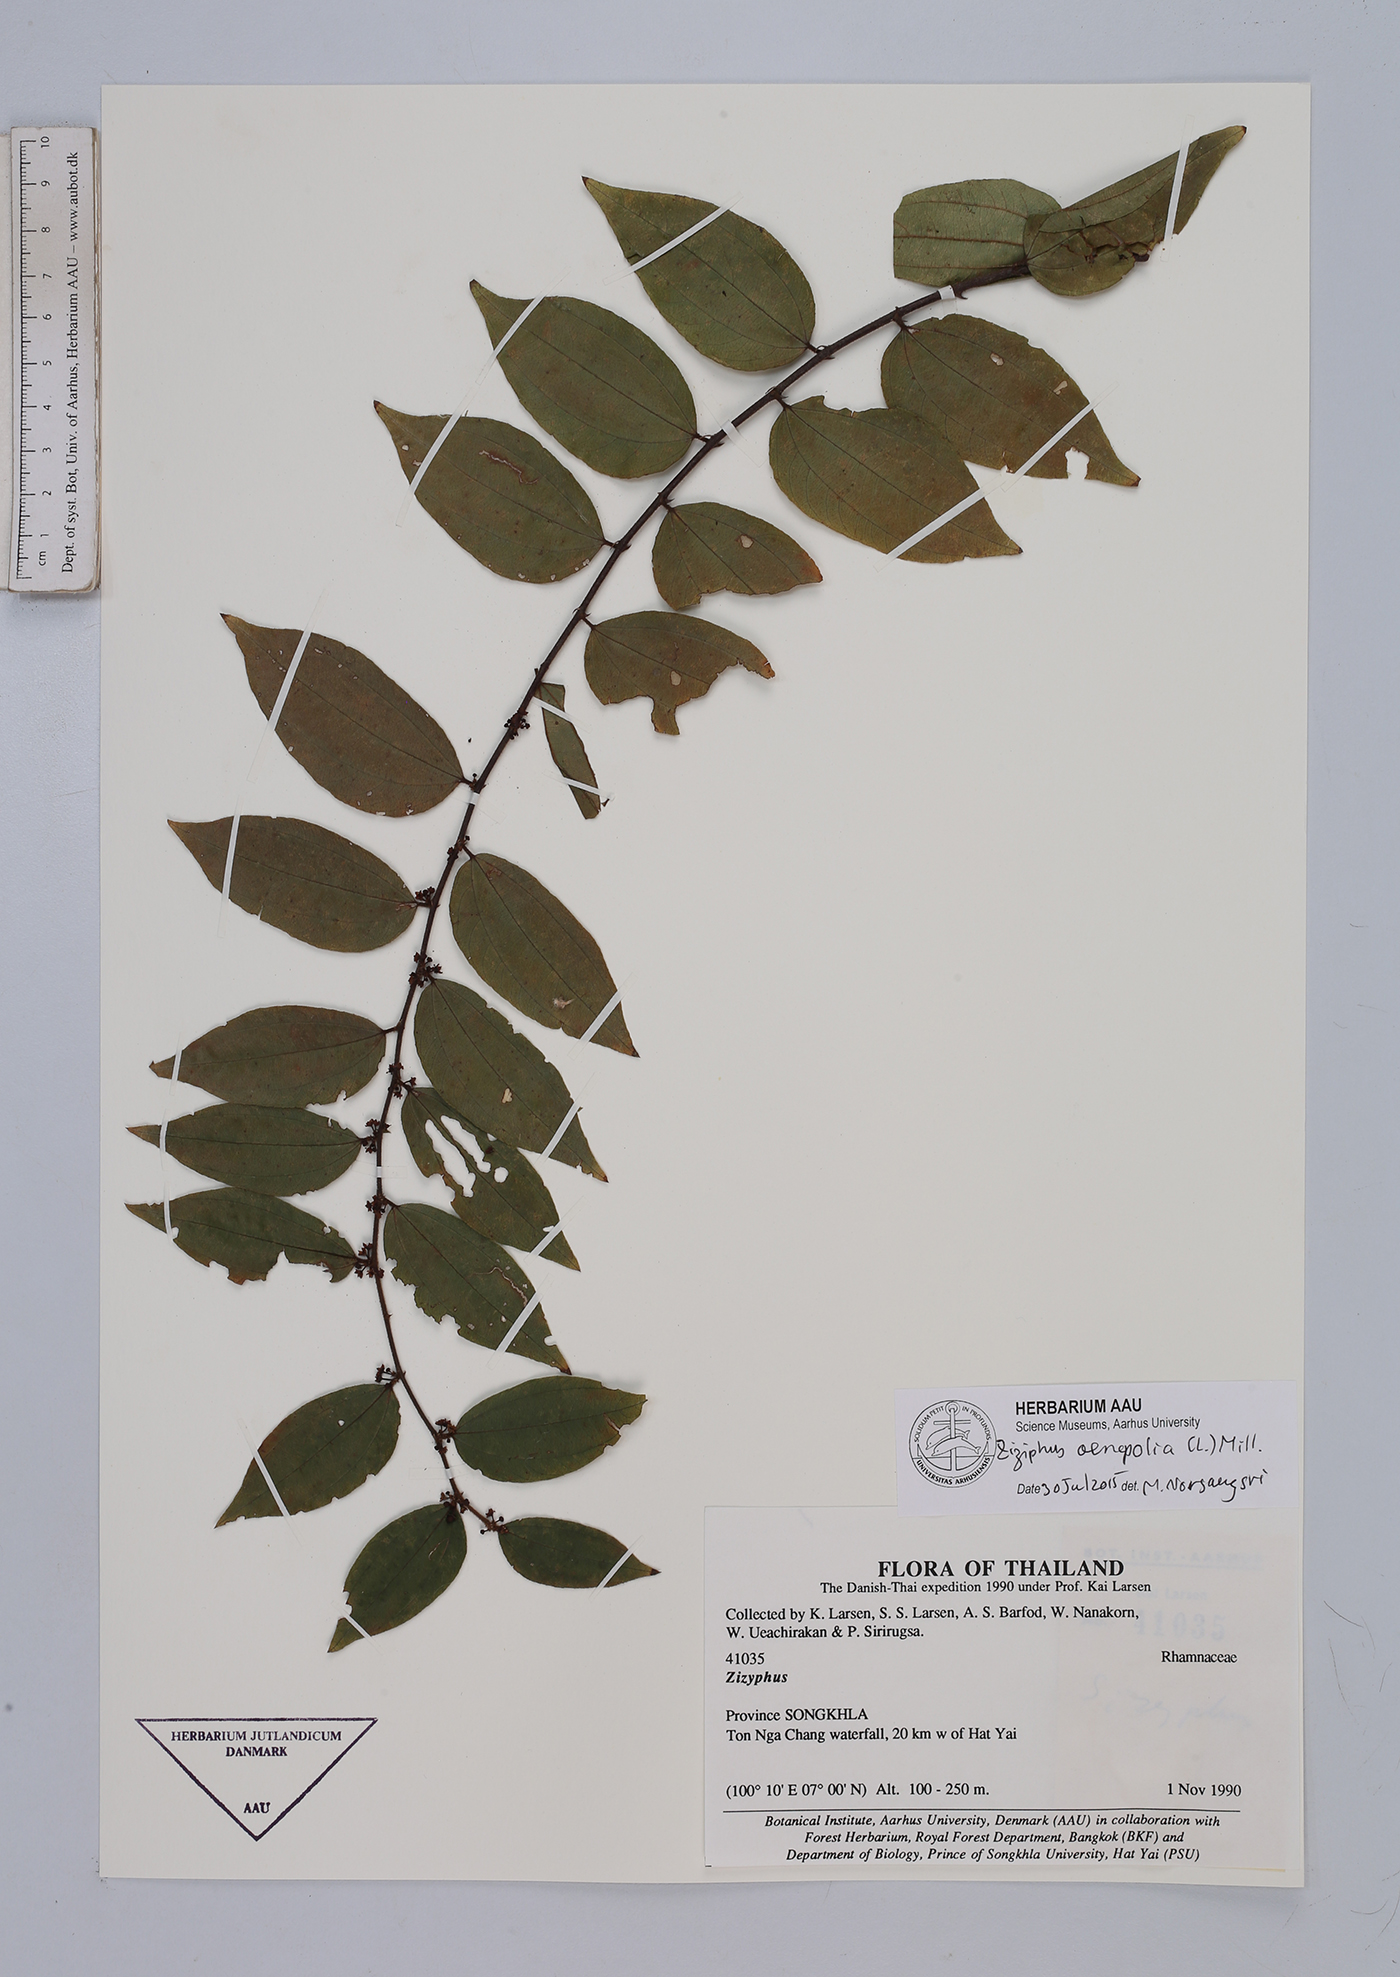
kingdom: Plantae
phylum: Tracheophyta
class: Magnoliopsida
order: Rosales
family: Rhamnaceae
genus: Ziziphus
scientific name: Ziziphus oenopolia
